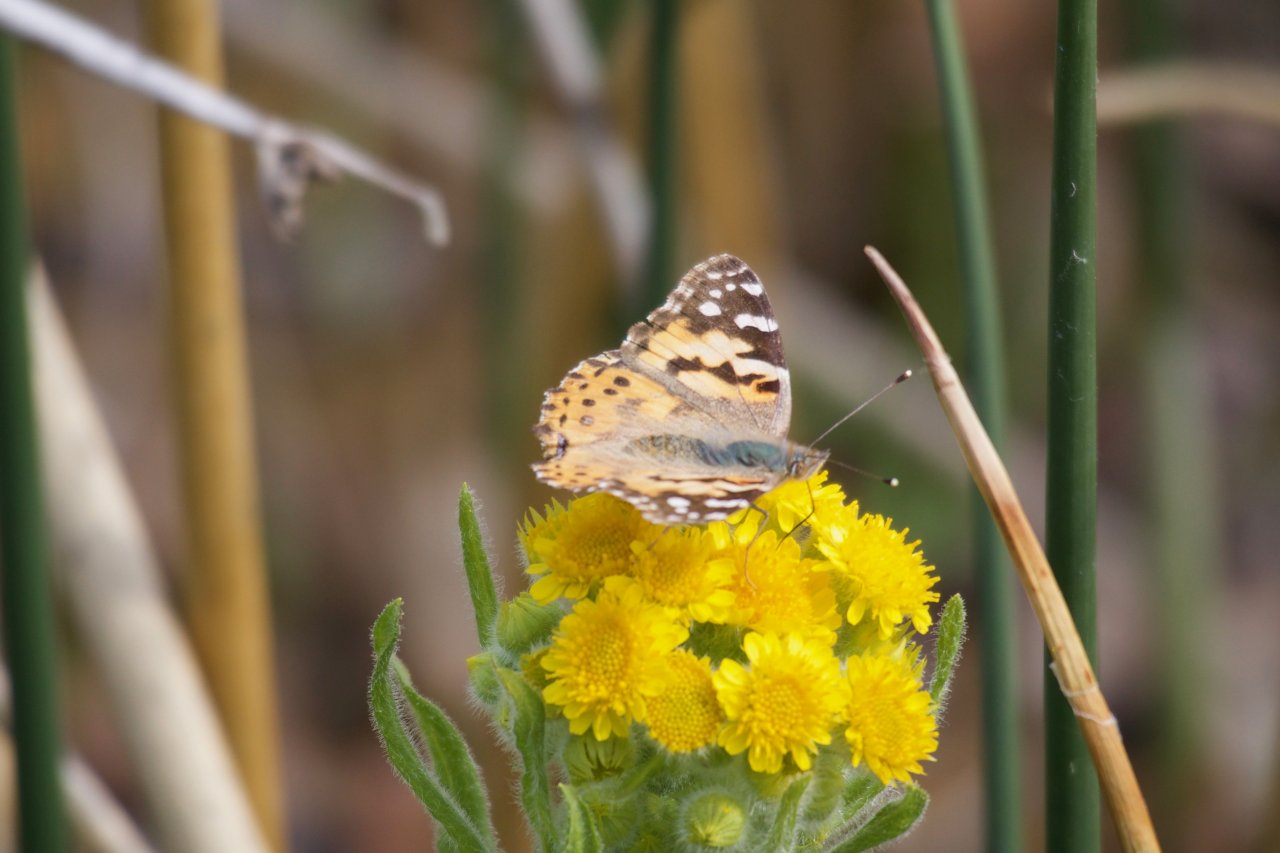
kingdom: Animalia
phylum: Arthropoda
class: Insecta
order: Lepidoptera
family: Nymphalidae
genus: Vanessa
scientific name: Vanessa cardui
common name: Painted Lady
